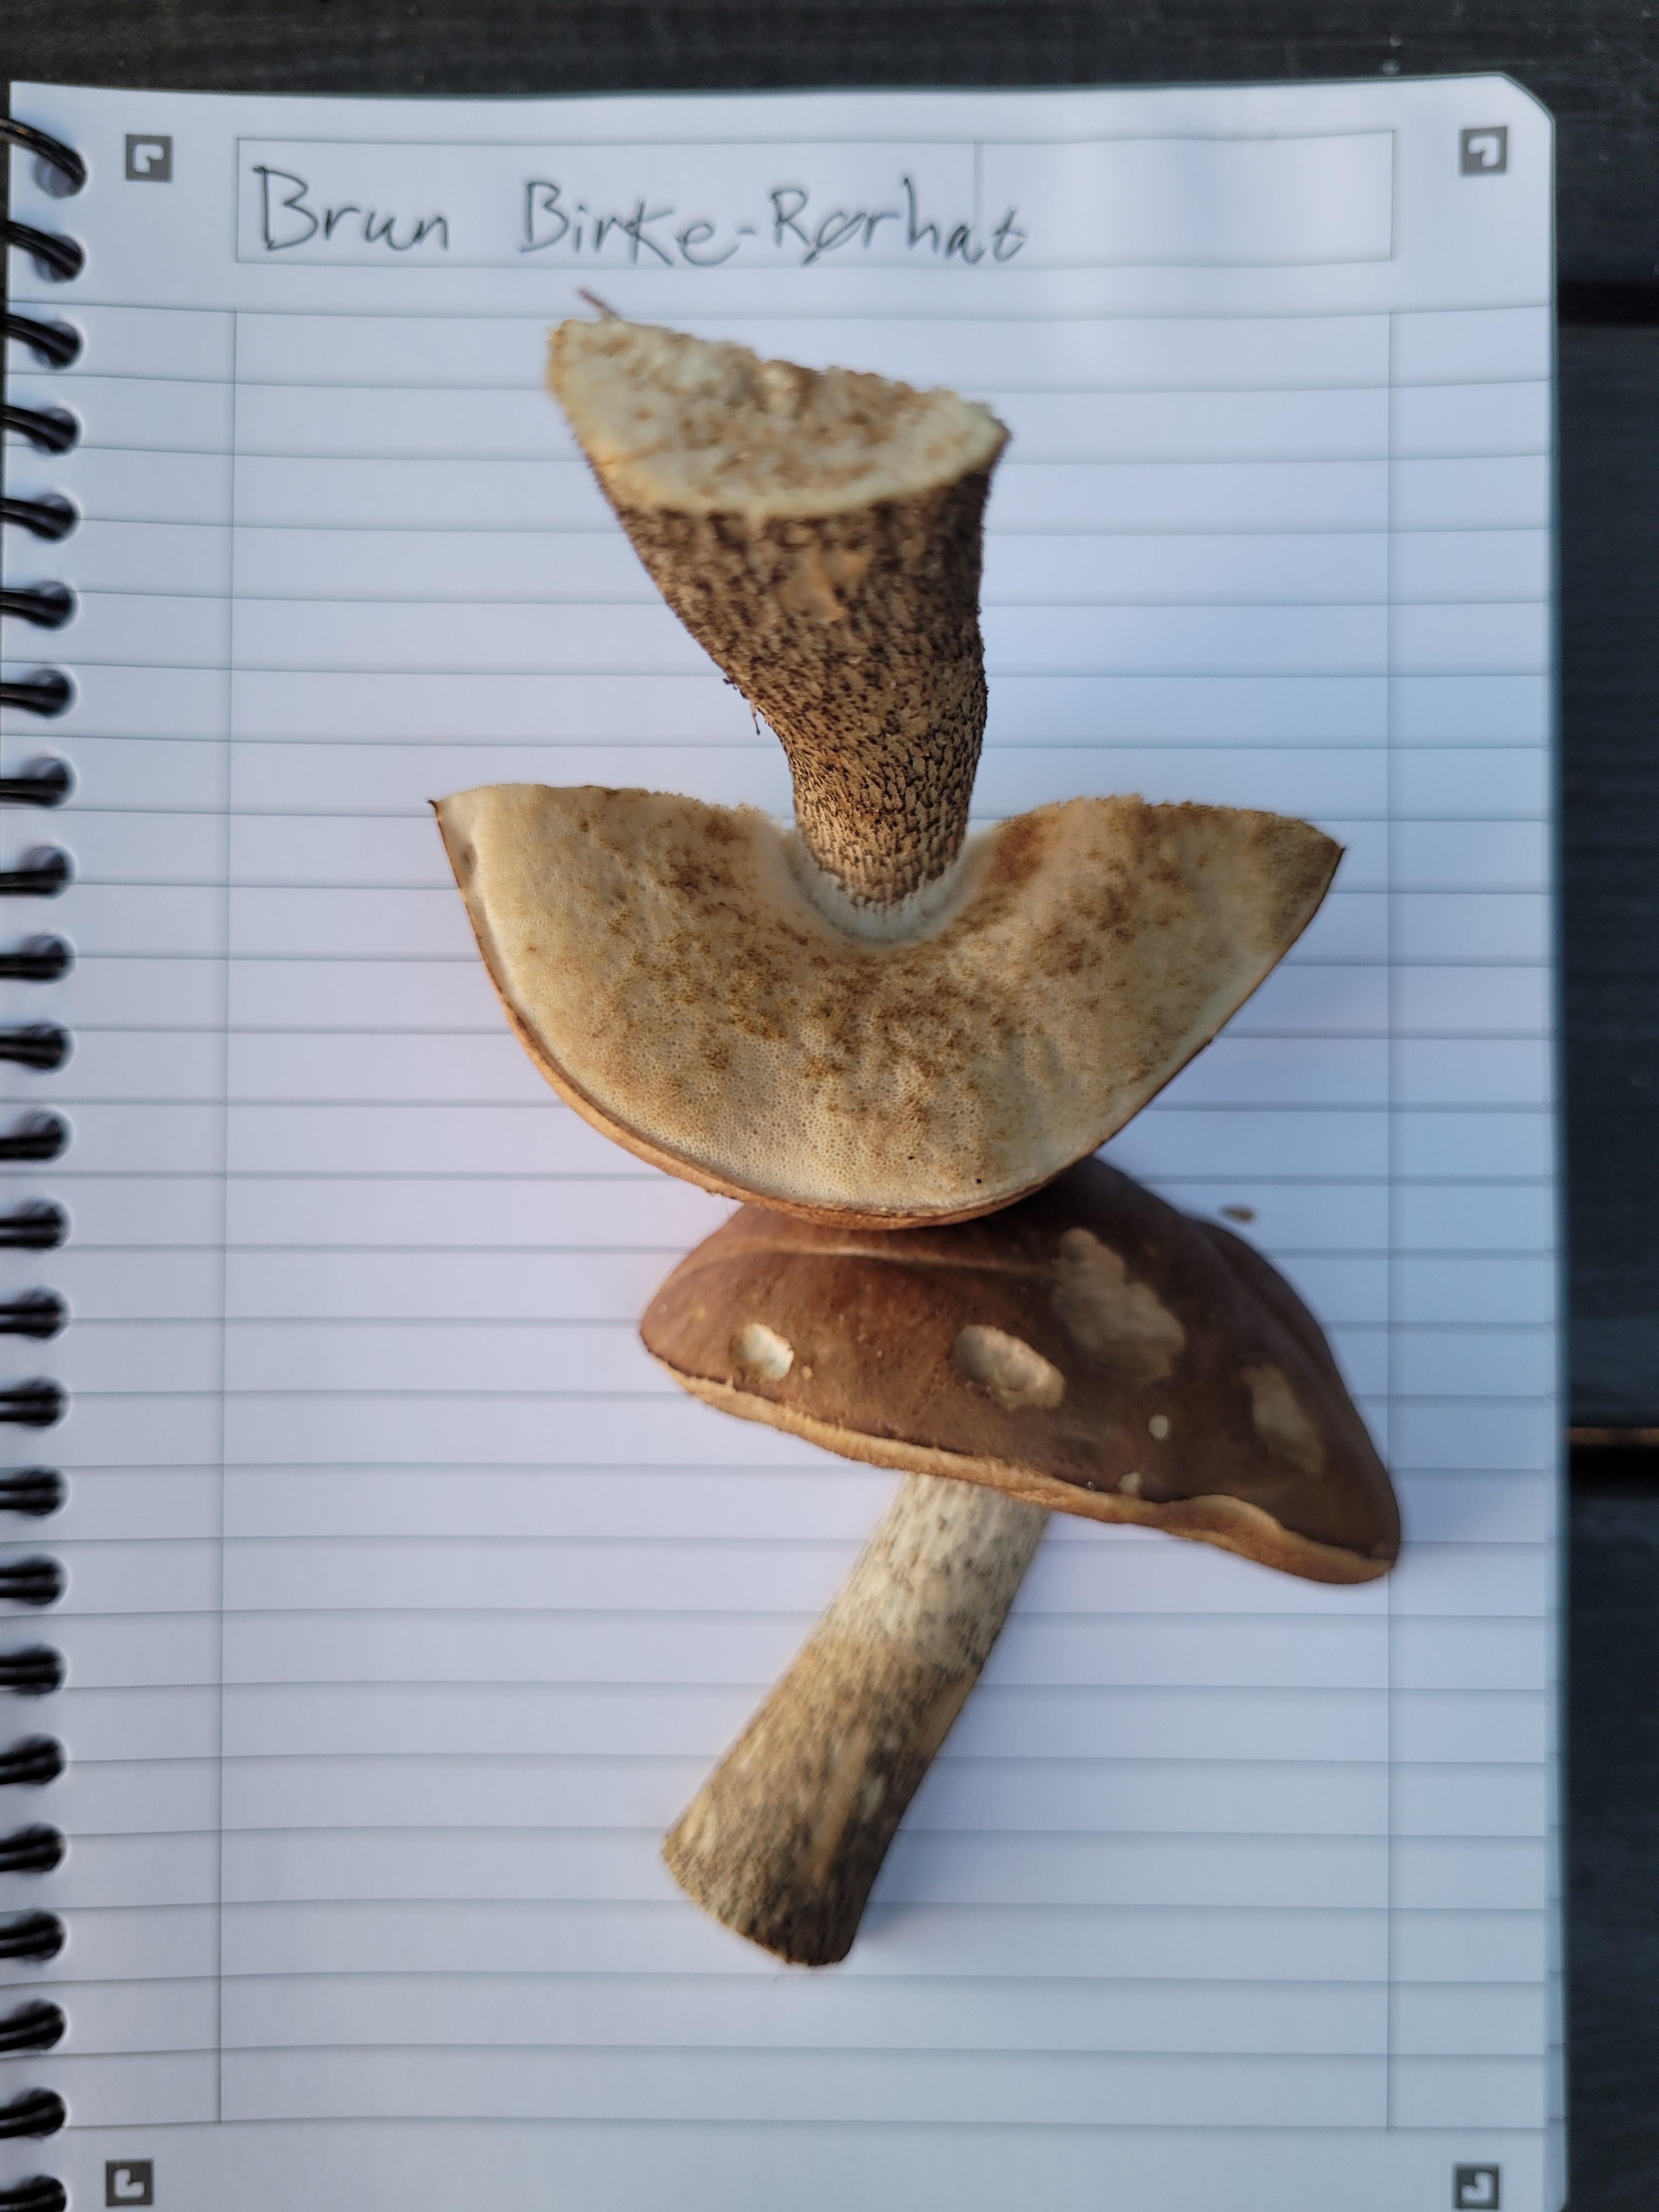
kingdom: Fungi
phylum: Basidiomycota
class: Agaricomycetes
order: Boletales
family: Boletaceae
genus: Leccinum
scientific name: Leccinum scabrum
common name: brun skælrørhat
